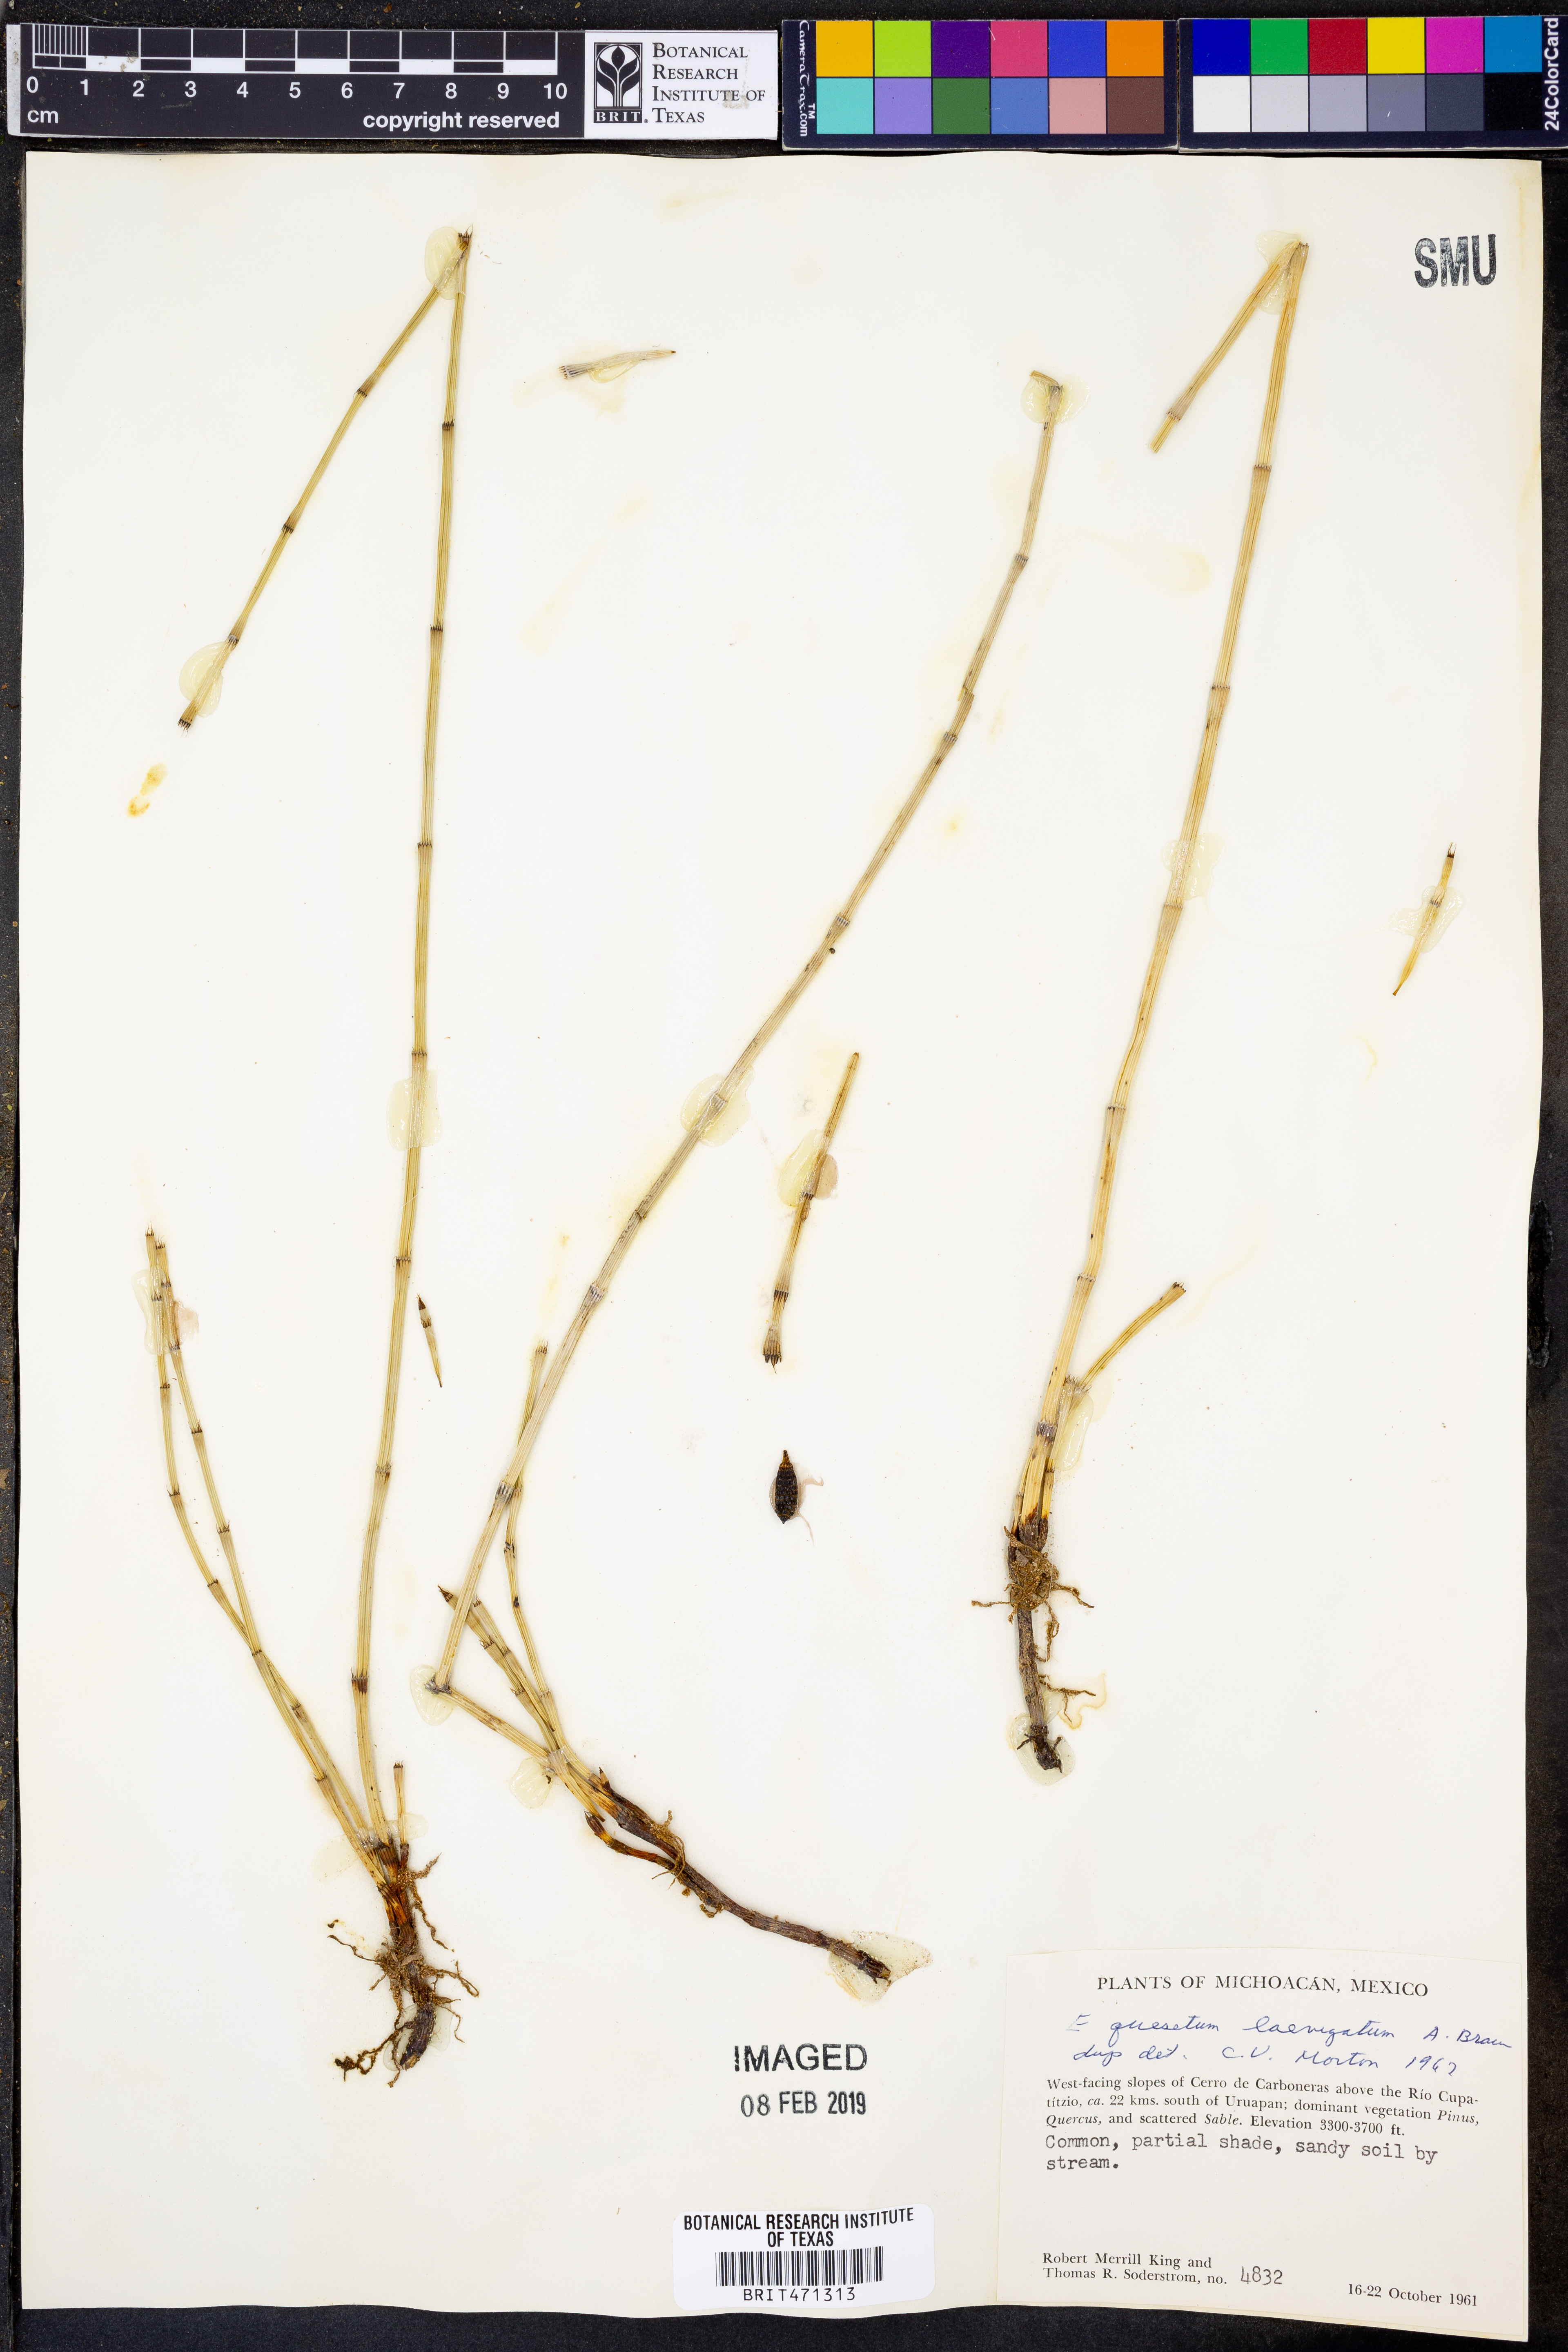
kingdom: Plantae
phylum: Tracheophyta
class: Polypodiopsida
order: Equisetales
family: Equisetaceae
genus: Equisetum
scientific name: Equisetum laevigatum
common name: Smooth scouring-rush
